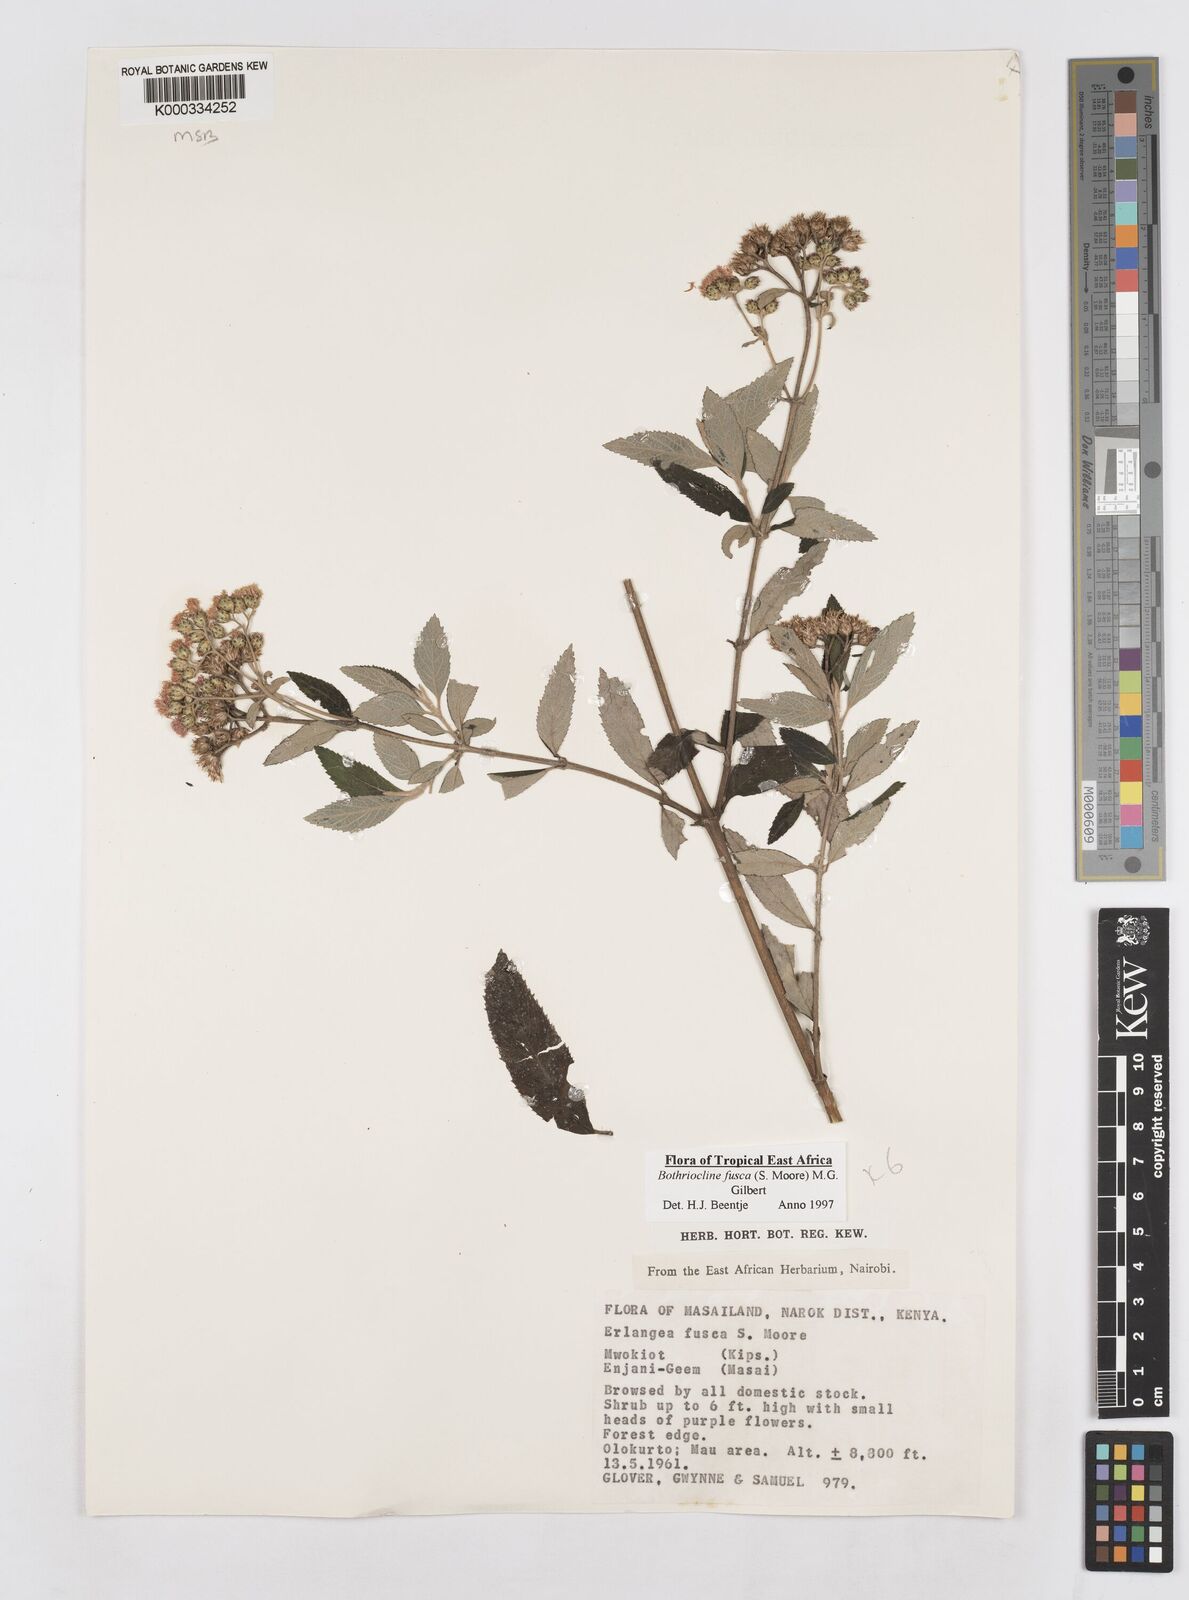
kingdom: Plantae
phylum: Tracheophyta
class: Magnoliopsida
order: Asterales
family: Asteraceae
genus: Bothriocline
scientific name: Bothriocline fusca
